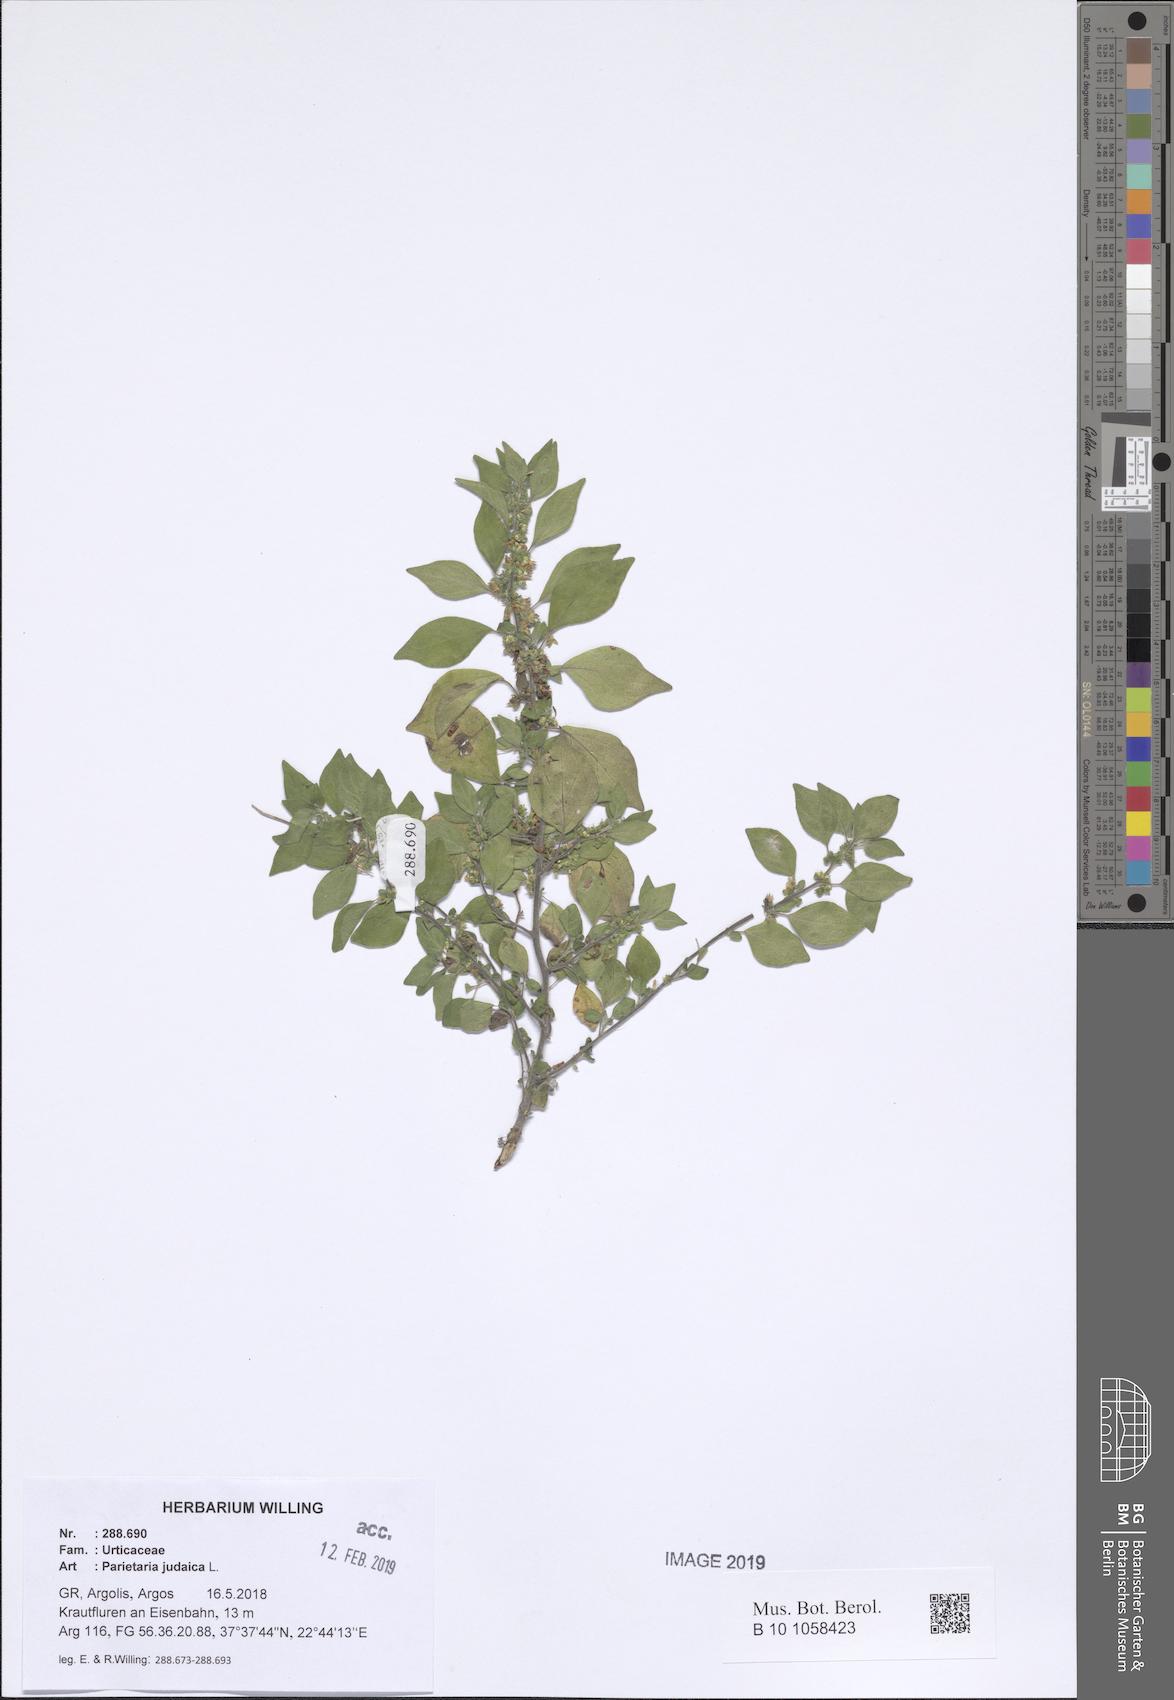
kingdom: Plantae
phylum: Tracheophyta
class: Magnoliopsida
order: Rosales
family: Urticaceae
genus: Parietaria
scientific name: Parietaria judaica
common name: Pellitory-of-the-wall
